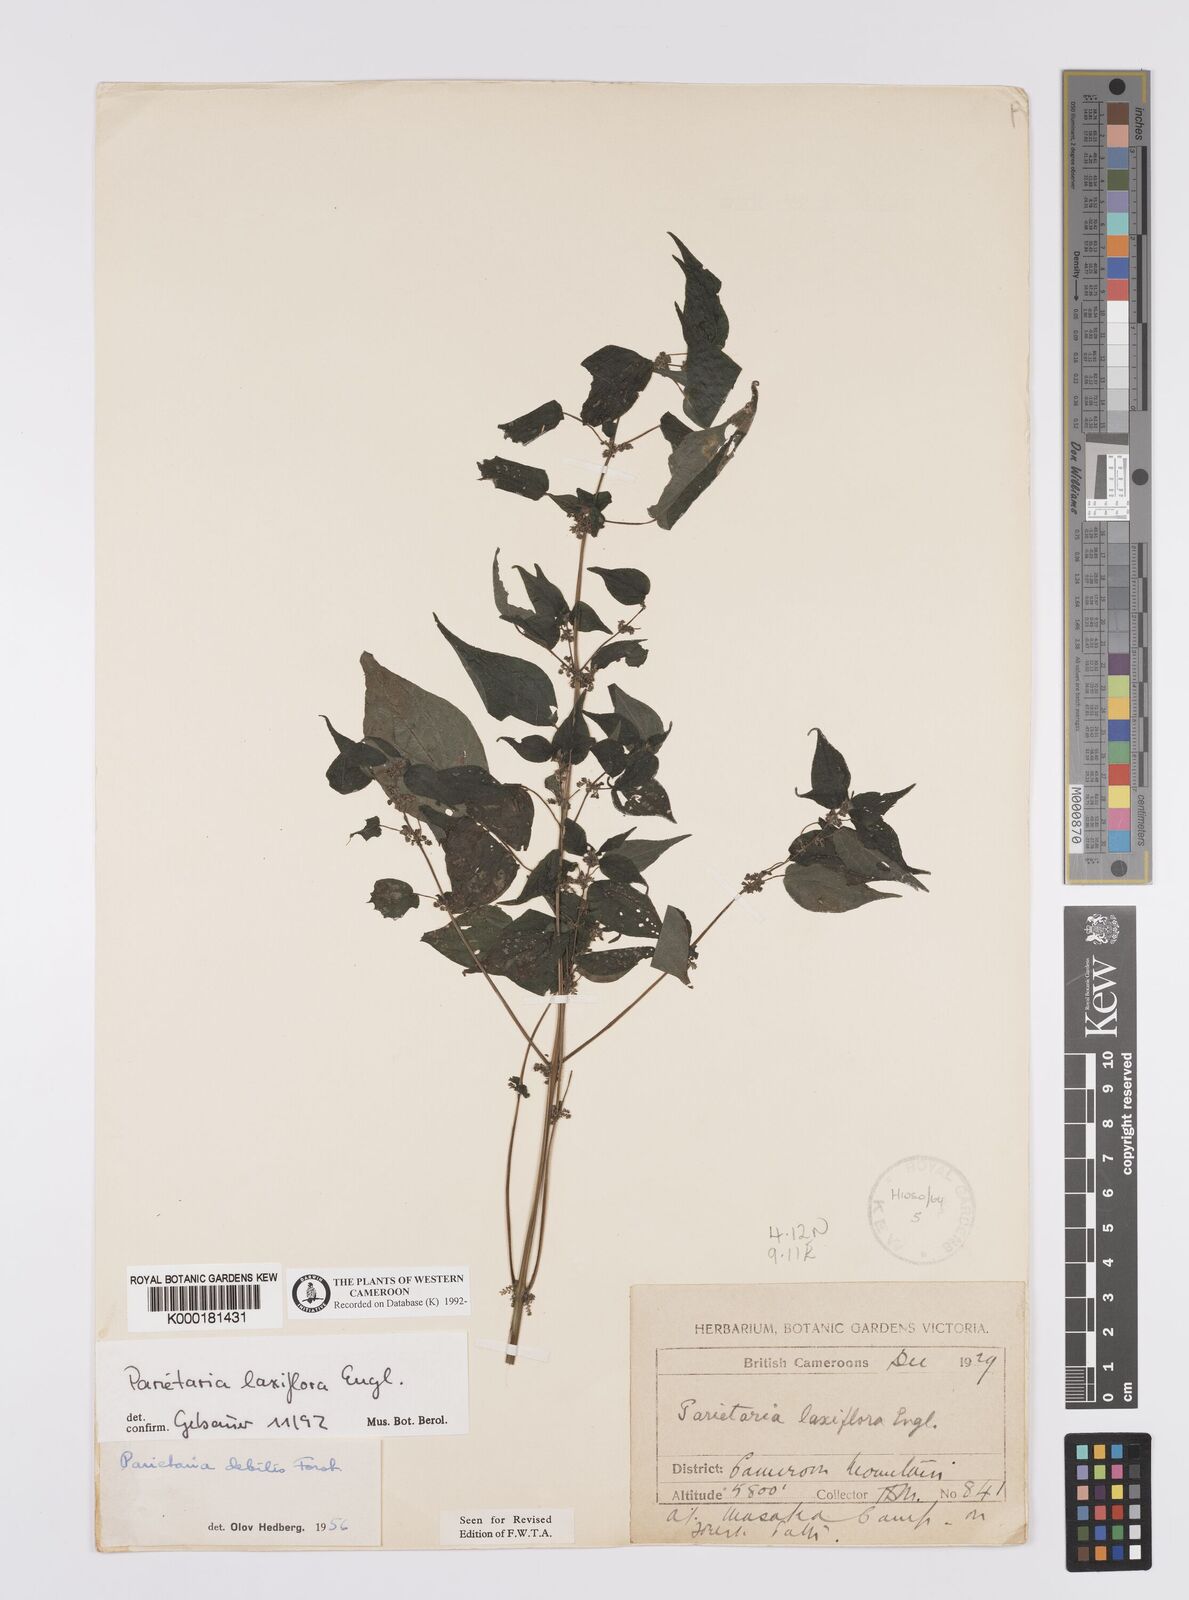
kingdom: Plantae
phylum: Tracheophyta
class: Magnoliopsida
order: Rosales
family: Urticaceae
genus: Parietaria
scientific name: Parietaria debilis
